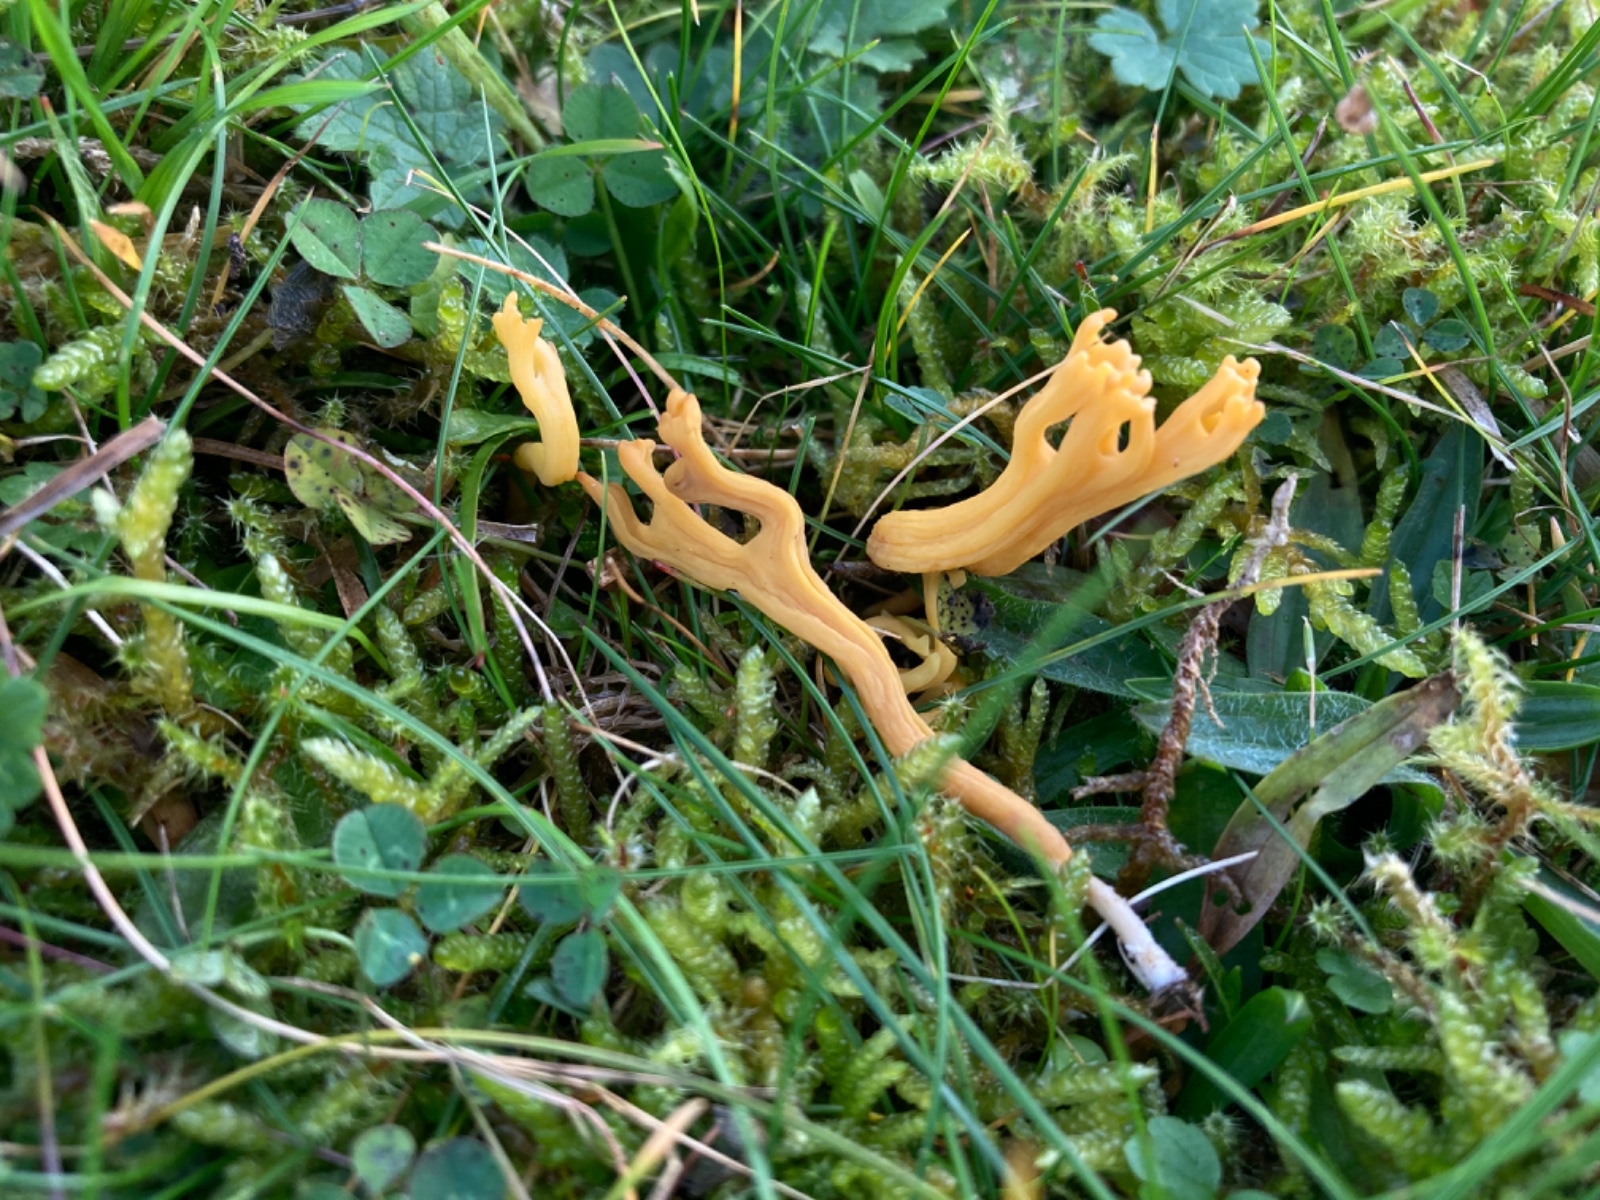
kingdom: Fungi
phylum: Basidiomycota
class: Agaricomycetes
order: Agaricales
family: Clavariaceae
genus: Clavulinopsis
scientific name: Clavulinopsis corniculata
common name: eng-køllesvamp
